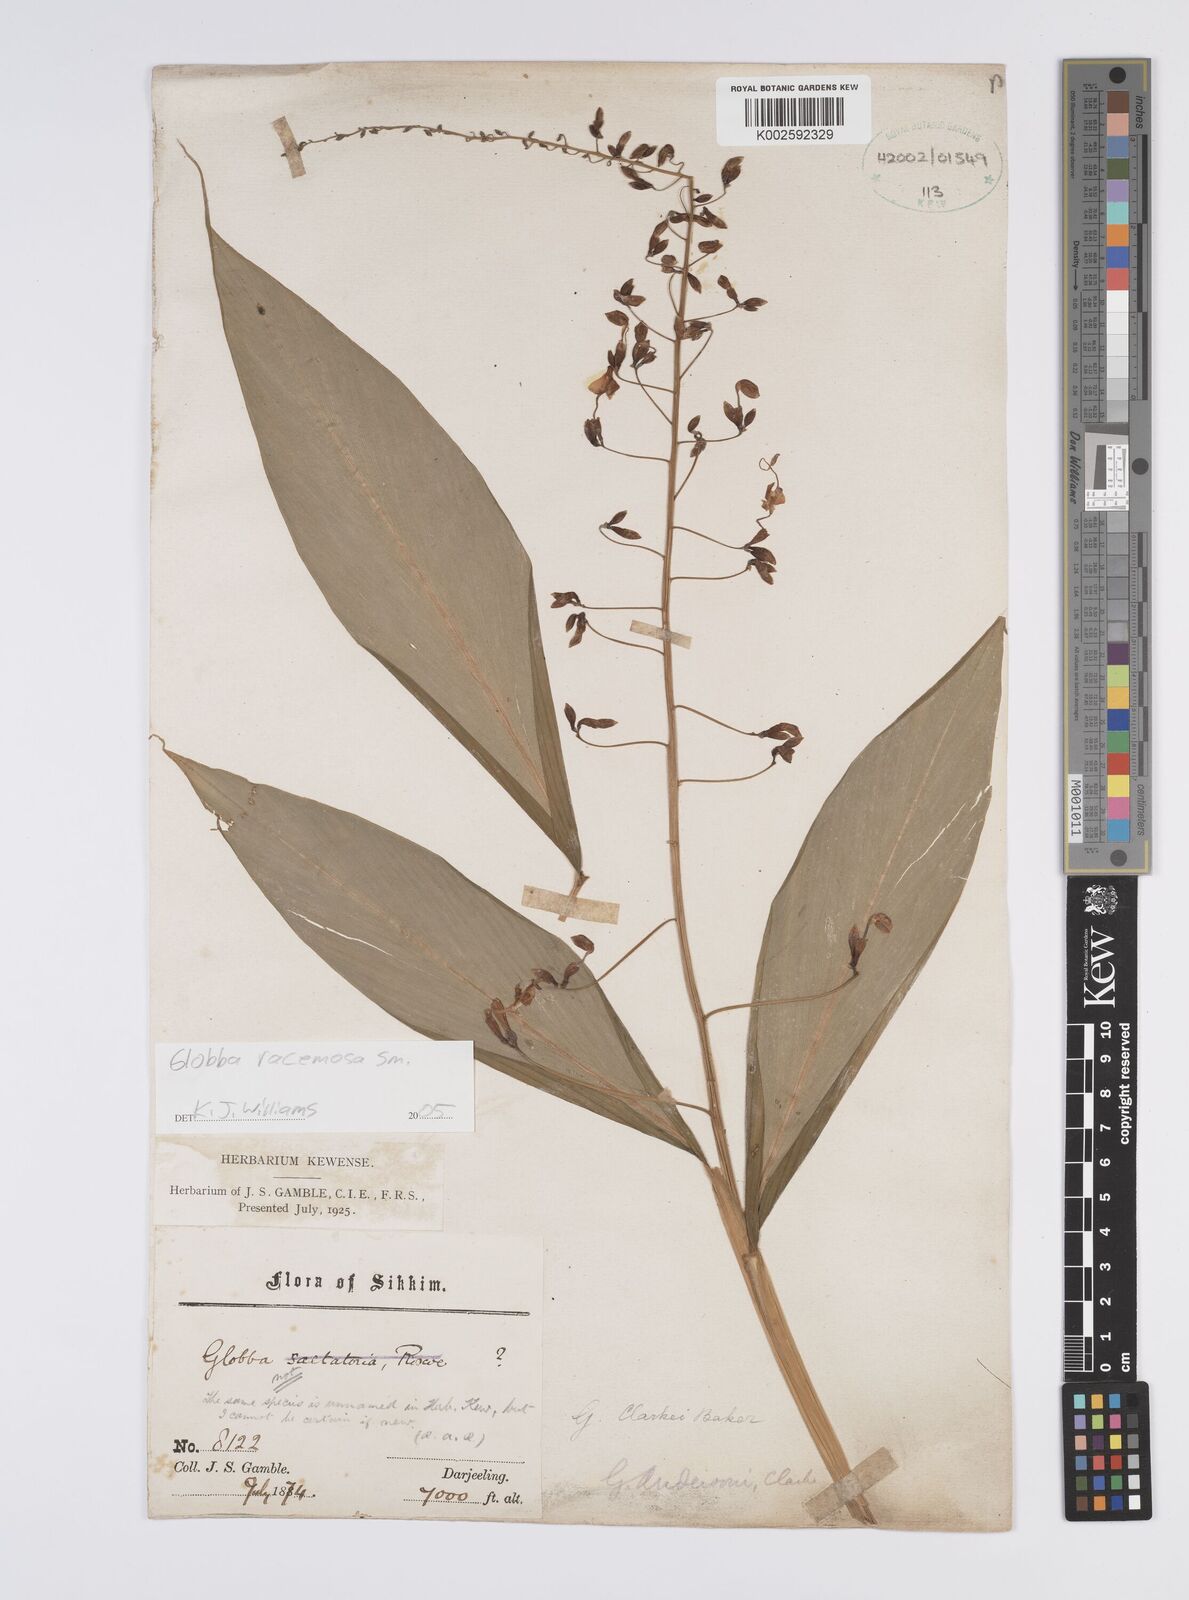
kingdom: Plantae
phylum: Tracheophyta
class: Liliopsida
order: Zingiberales
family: Zingiberaceae
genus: Globba
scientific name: Globba
